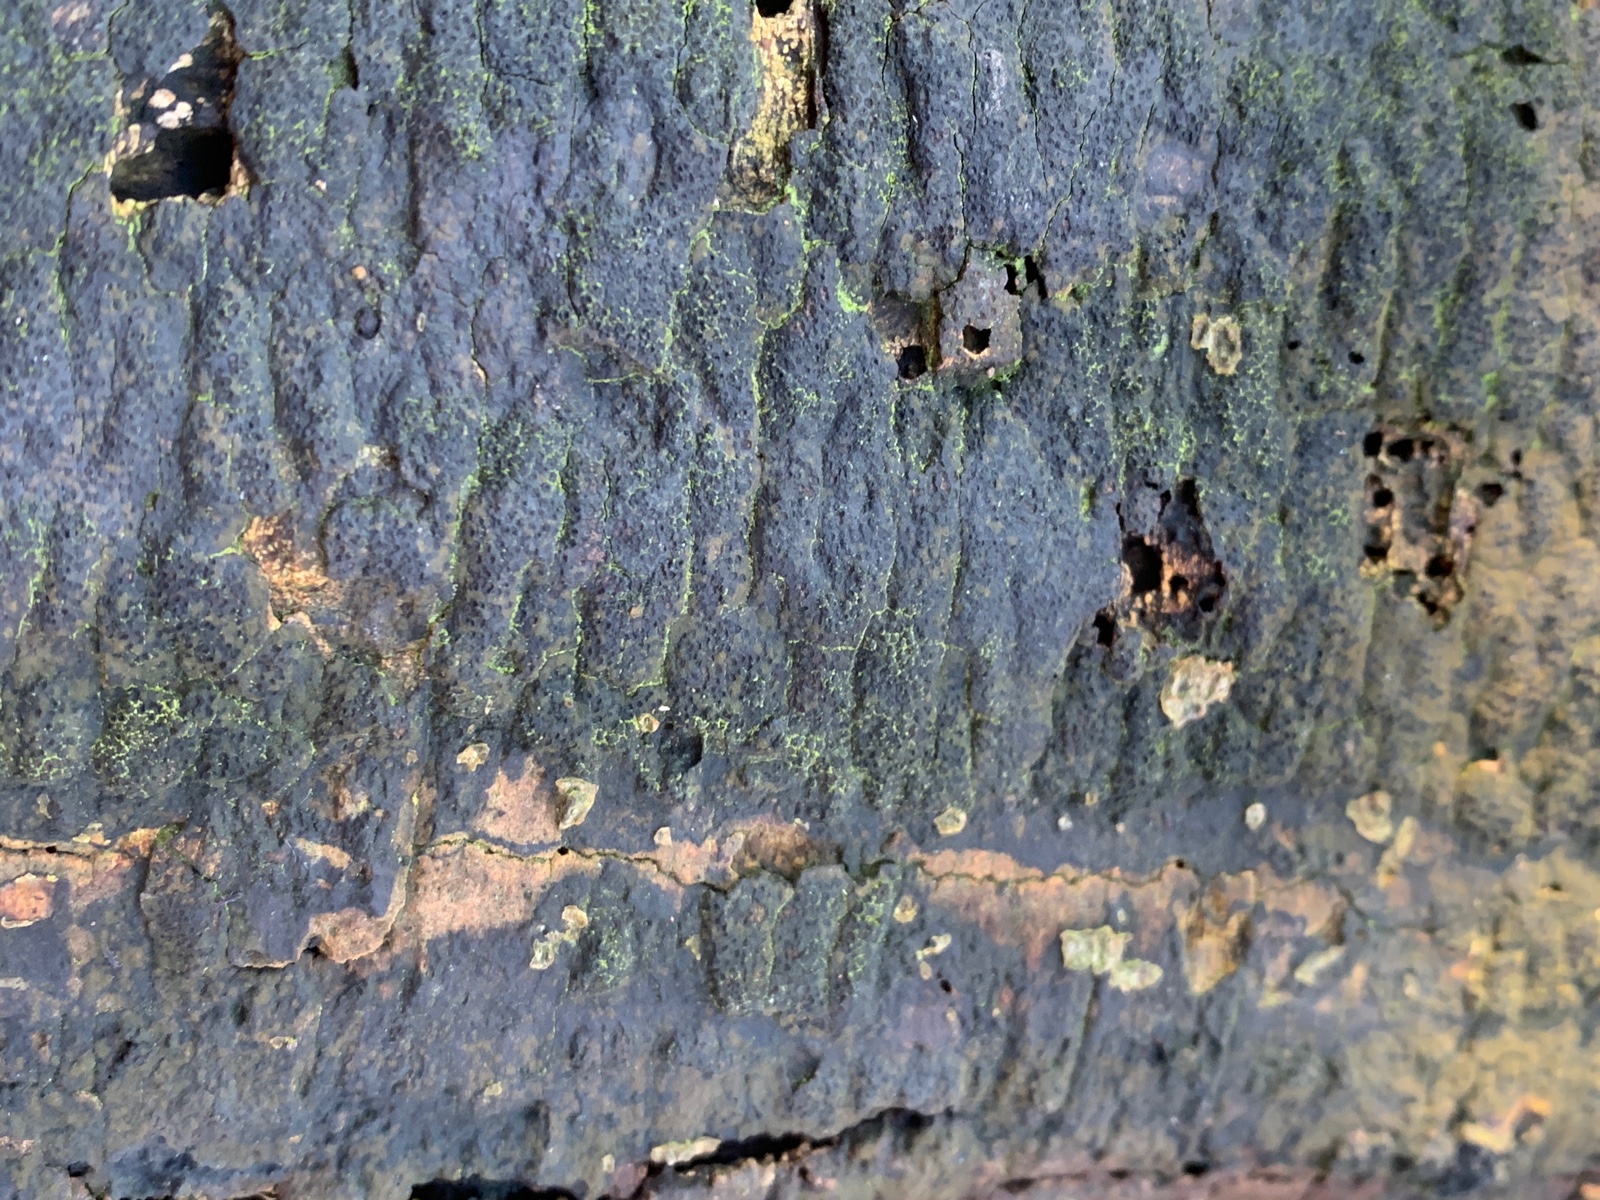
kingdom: Fungi
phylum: Ascomycota
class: Sordariomycetes
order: Xylariales
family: Diatrypaceae
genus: Eutypa
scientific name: Eutypa spinosa
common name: grov kulskorpe
